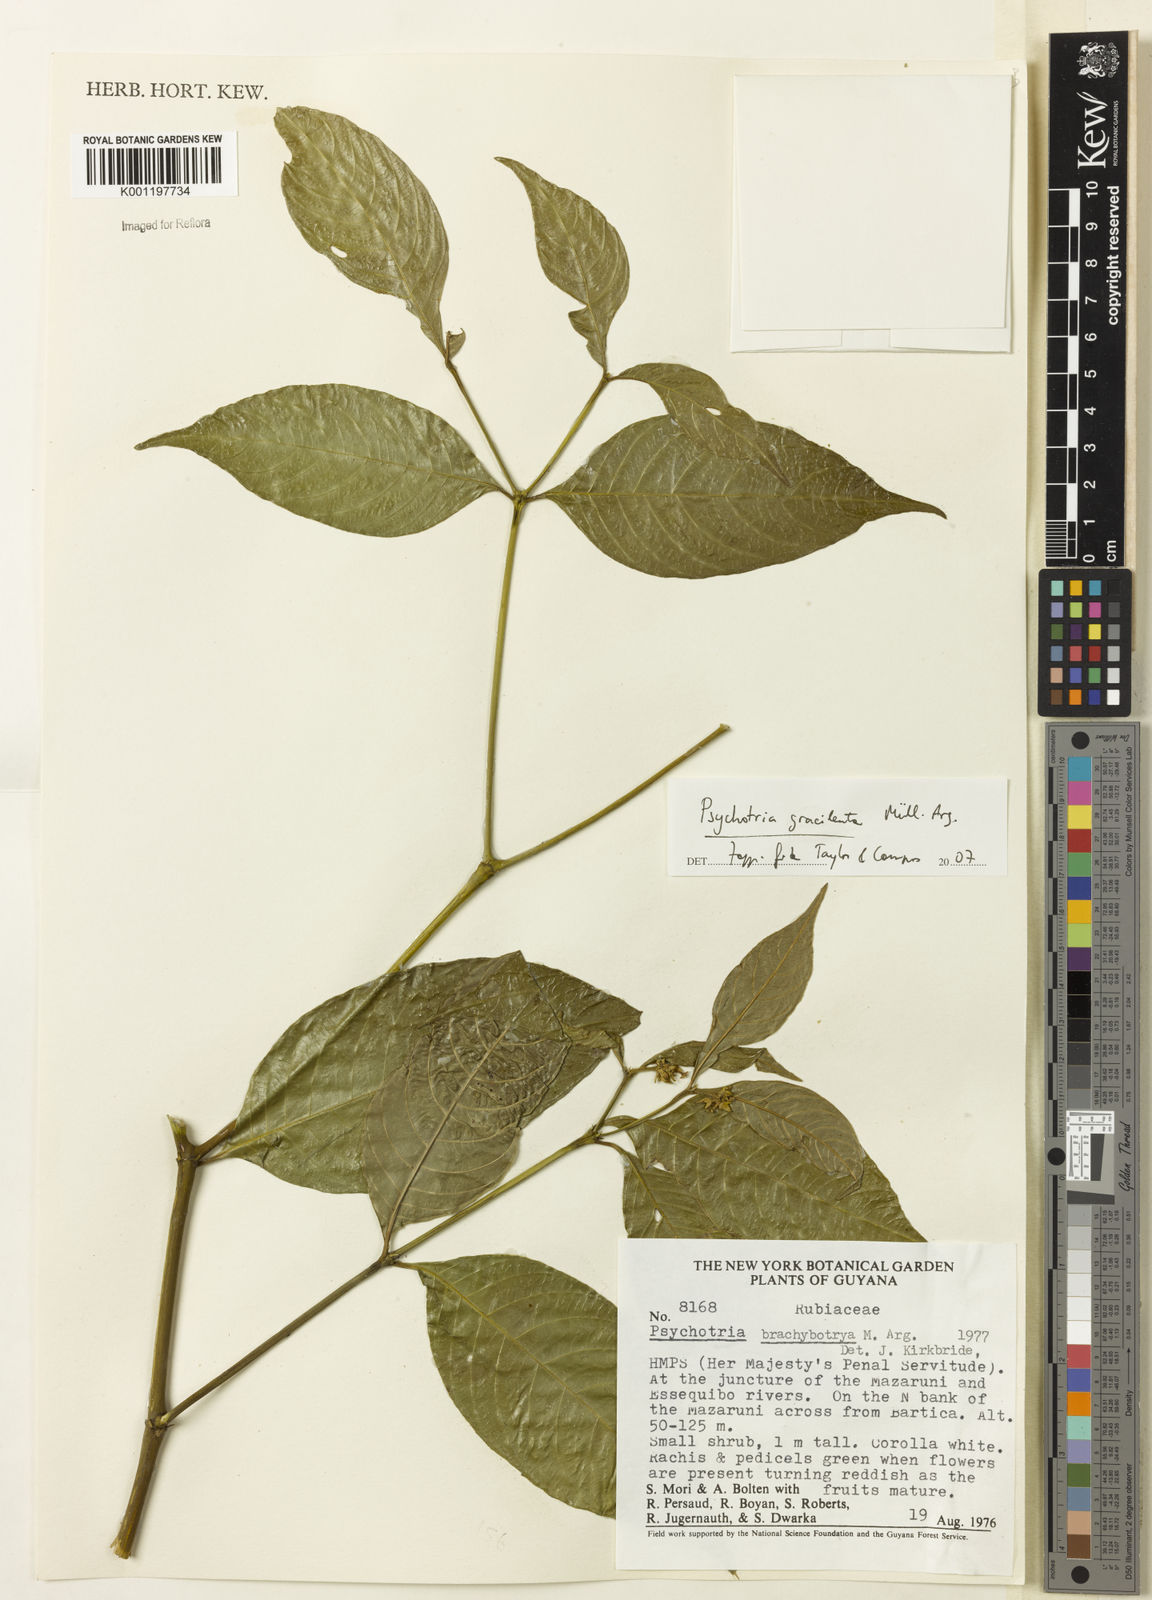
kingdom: Plantae
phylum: Tracheophyta
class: Magnoliopsida
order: Gentianales
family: Rubiaceae
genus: Psychotria
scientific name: Psychotria
